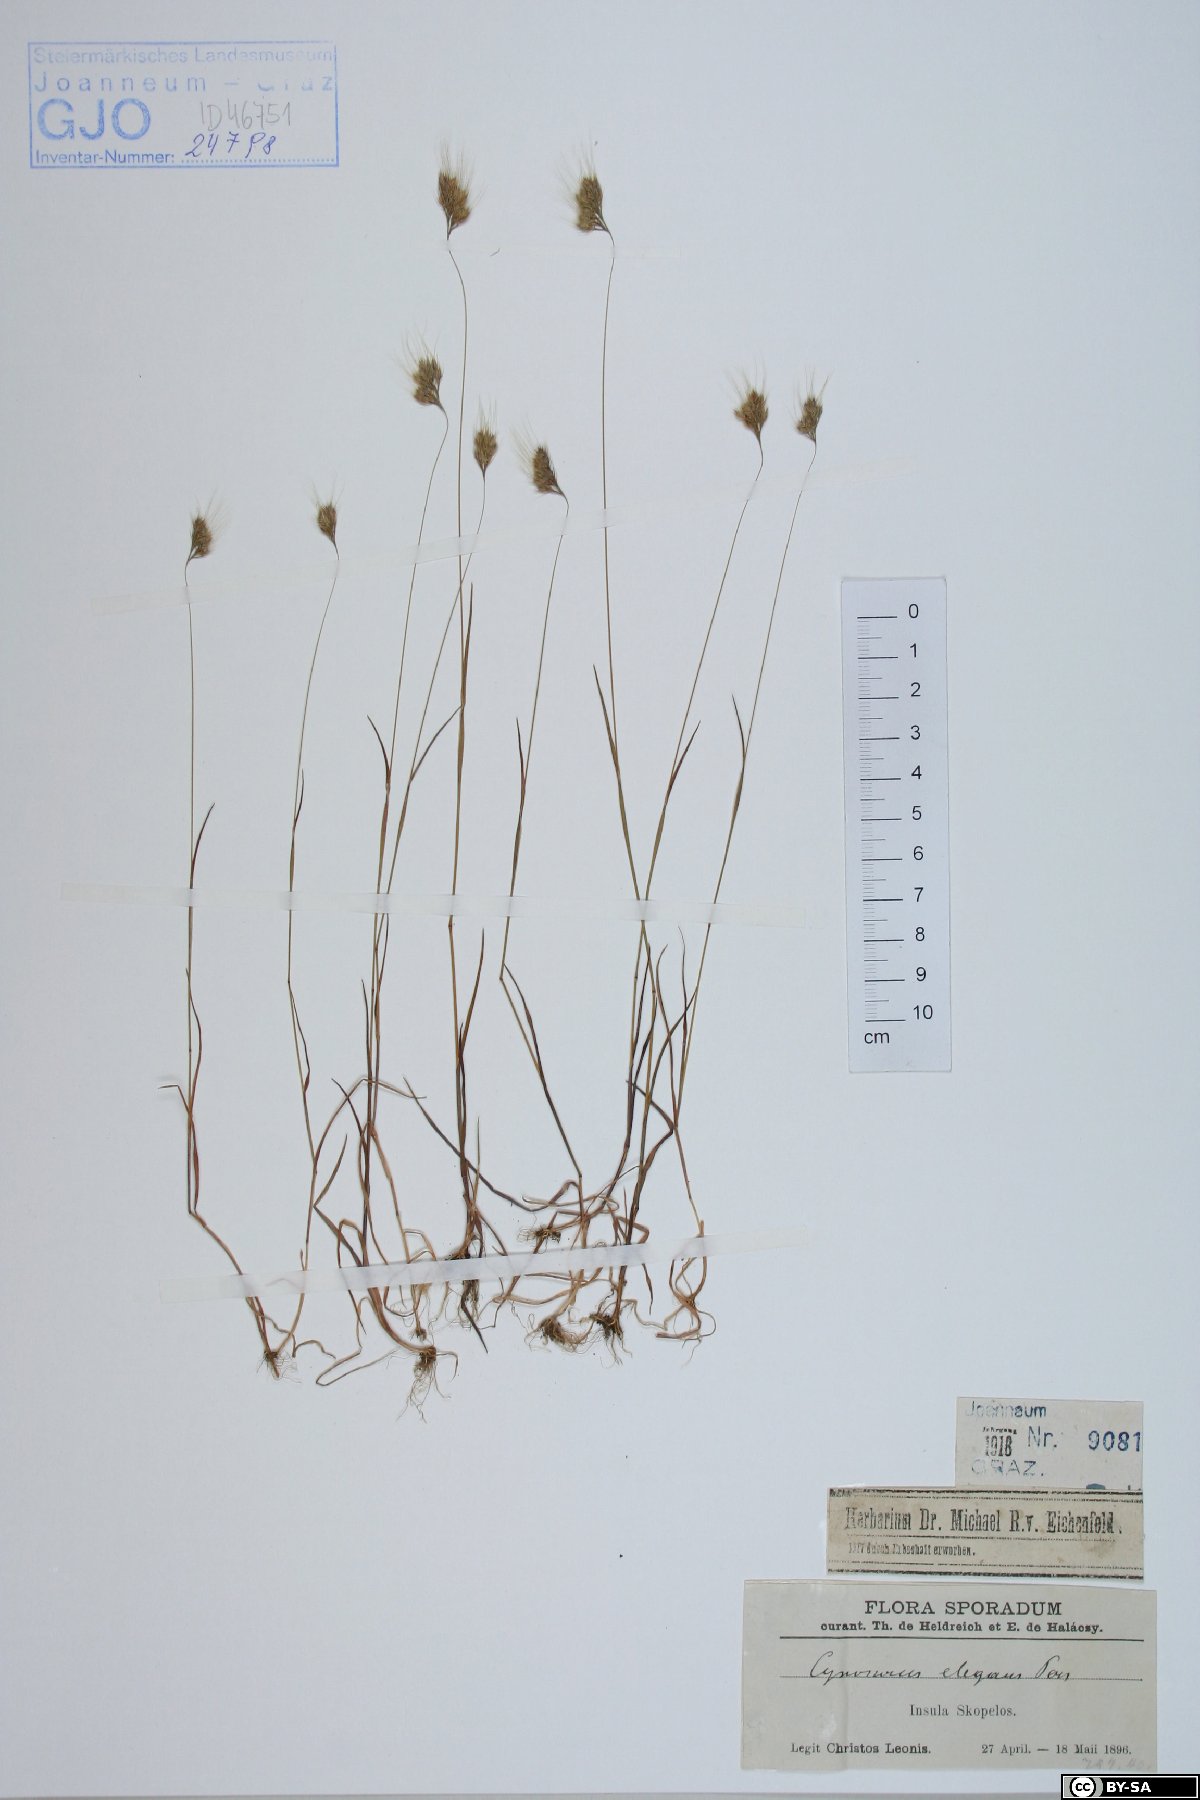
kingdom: Plantae
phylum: Tracheophyta
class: Liliopsida
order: Poales
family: Poaceae
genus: Cynosurus
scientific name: Cynosurus elegans
